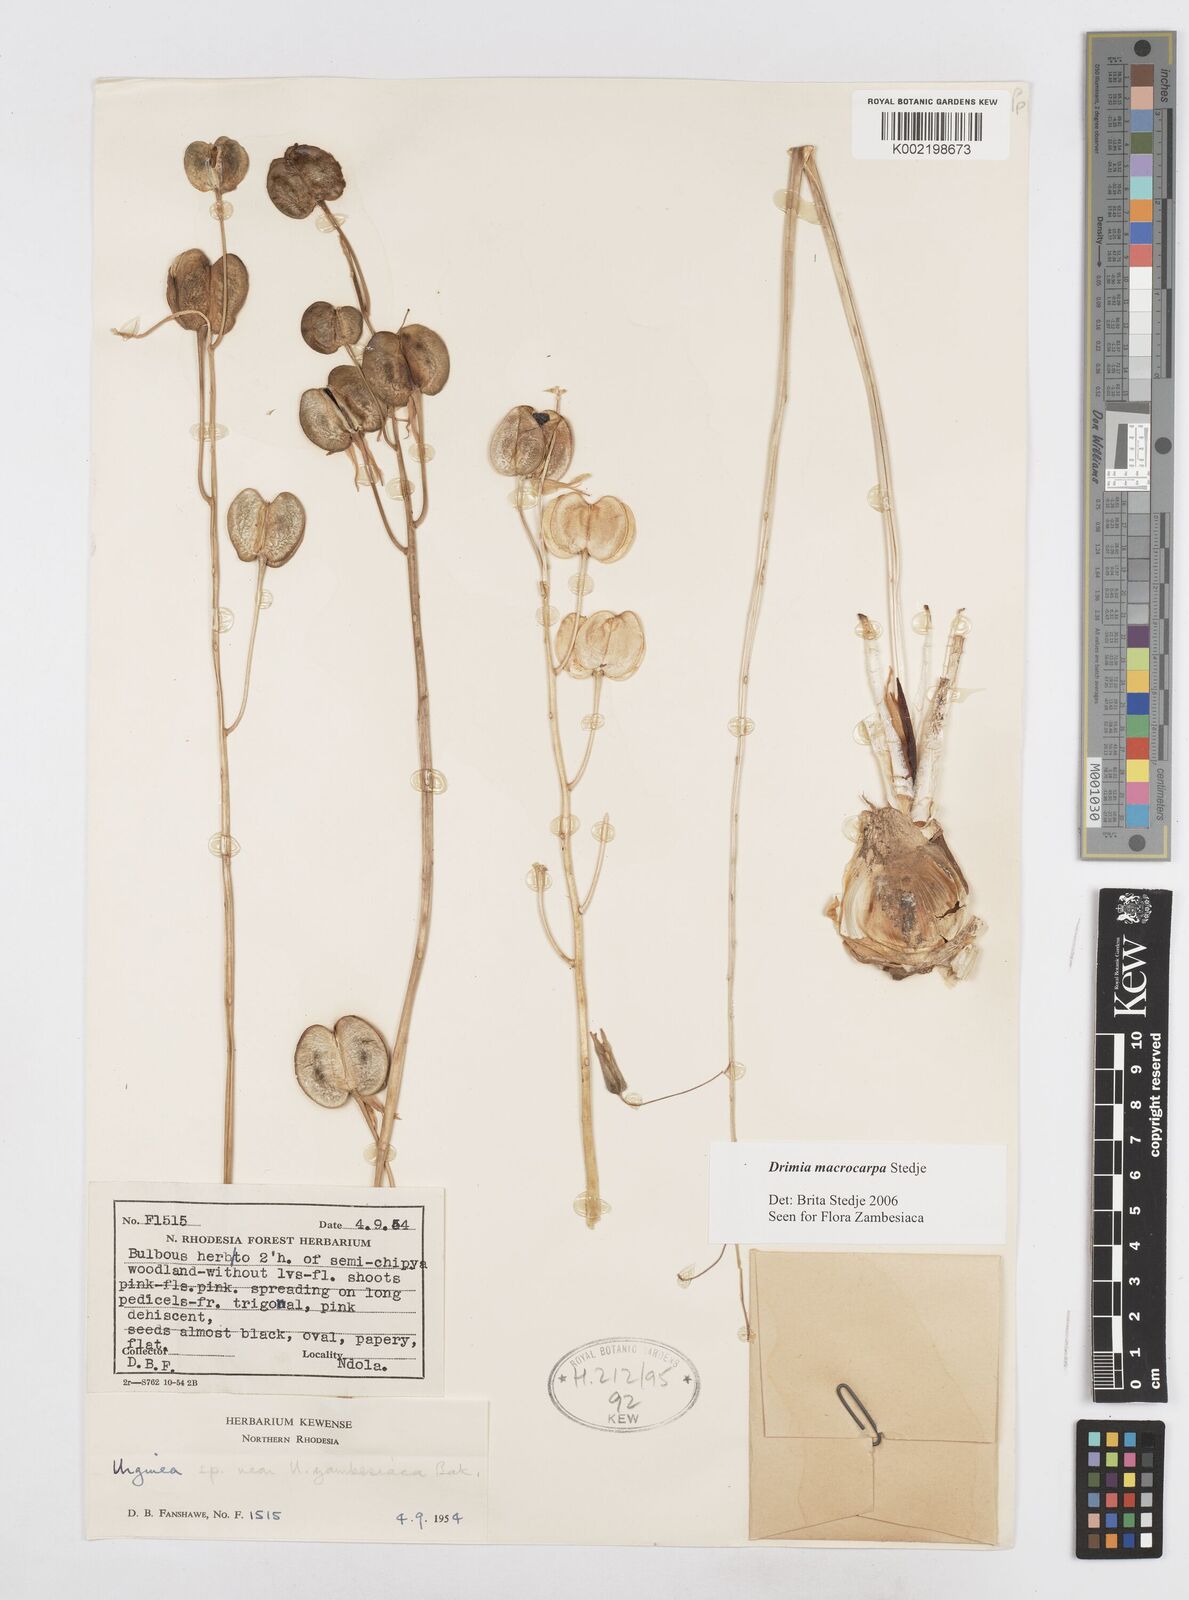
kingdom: Plantae
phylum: Tracheophyta
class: Liliopsida
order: Asparagales
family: Asparagaceae
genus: Drimia
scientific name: Drimia basutica
